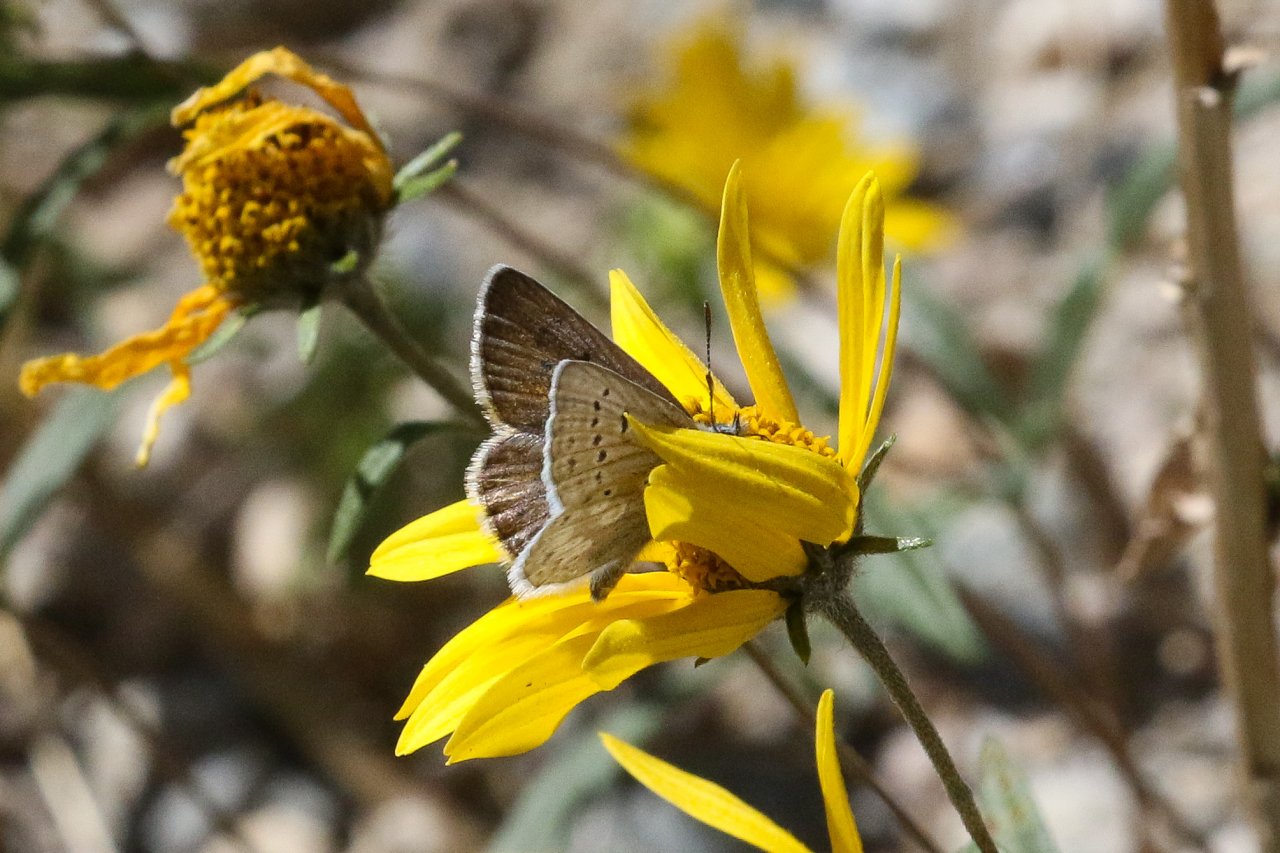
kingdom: Animalia
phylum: Arthropoda
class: Insecta
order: Lepidoptera
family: Lycaenidae
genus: Agriades
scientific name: Agriades glandon
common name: Arctic Blue
